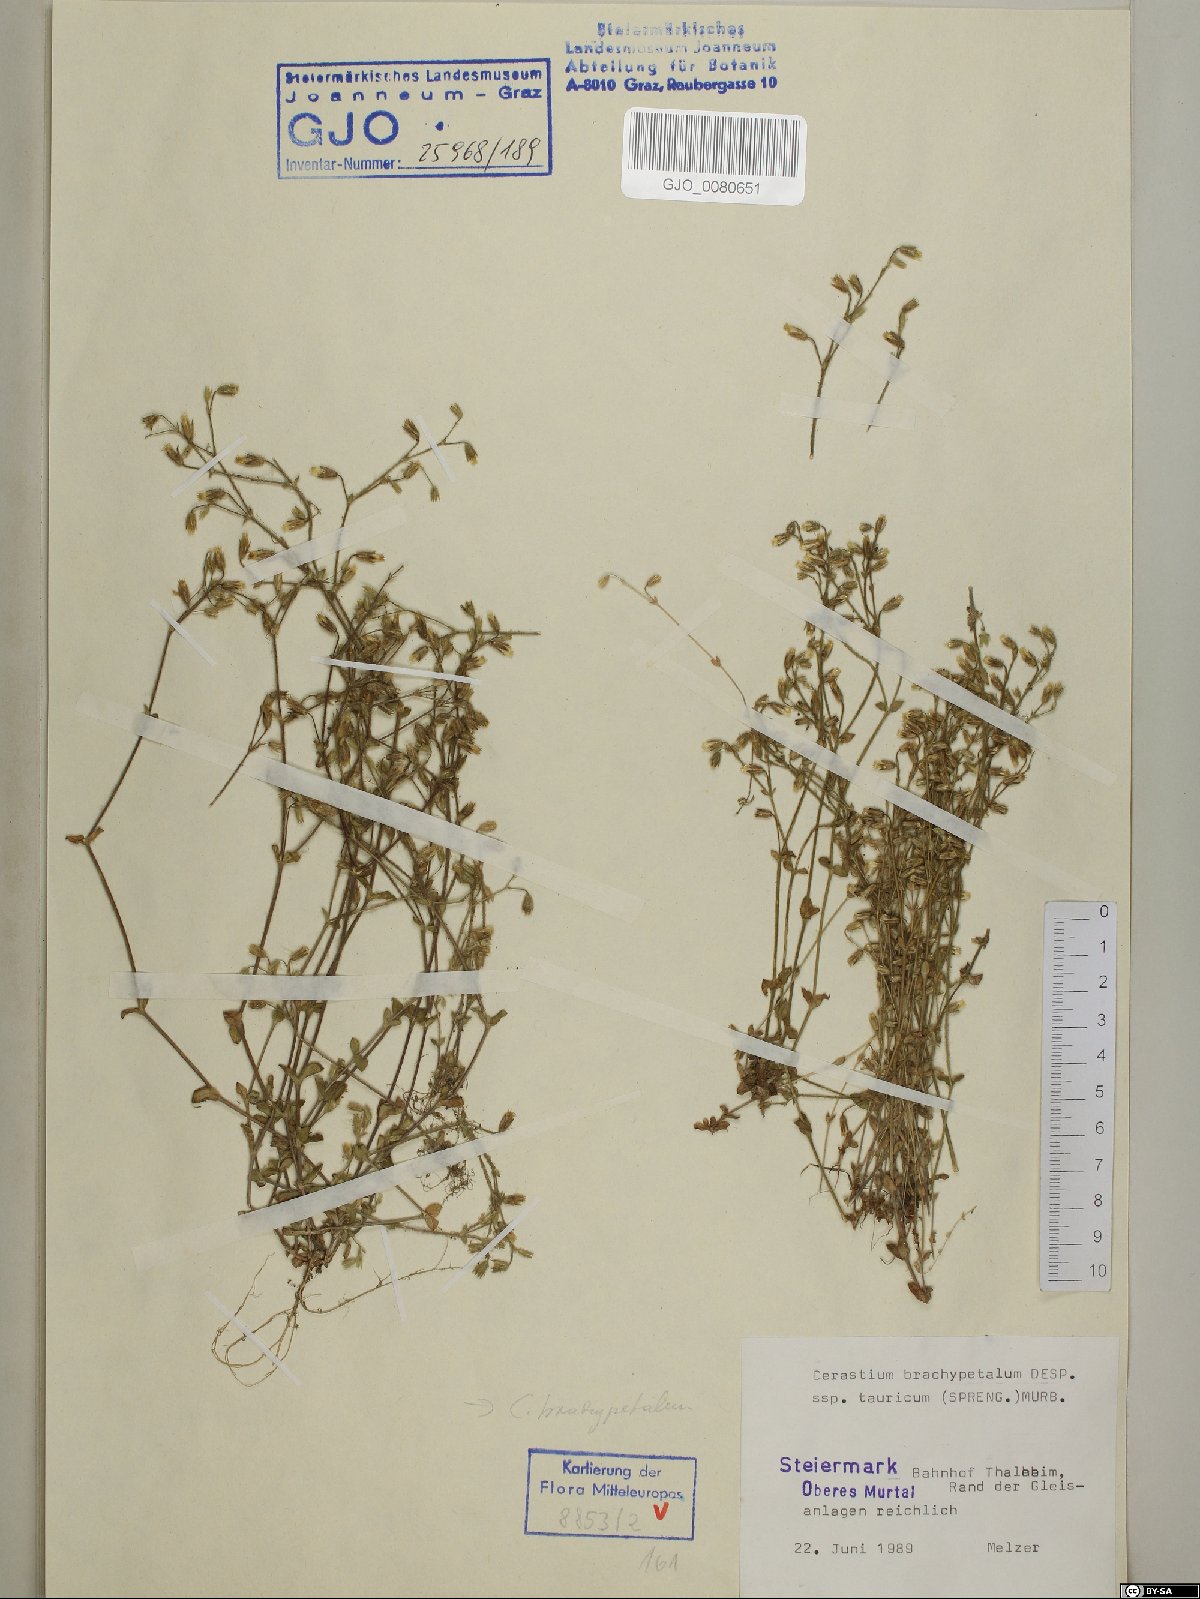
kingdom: Plantae
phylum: Tracheophyta
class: Magnoliopsida
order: Caryophyllales
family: Caryophyllaceae
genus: Cerastium
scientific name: Cerastium brachypetalum
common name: Grey mouse-ear
